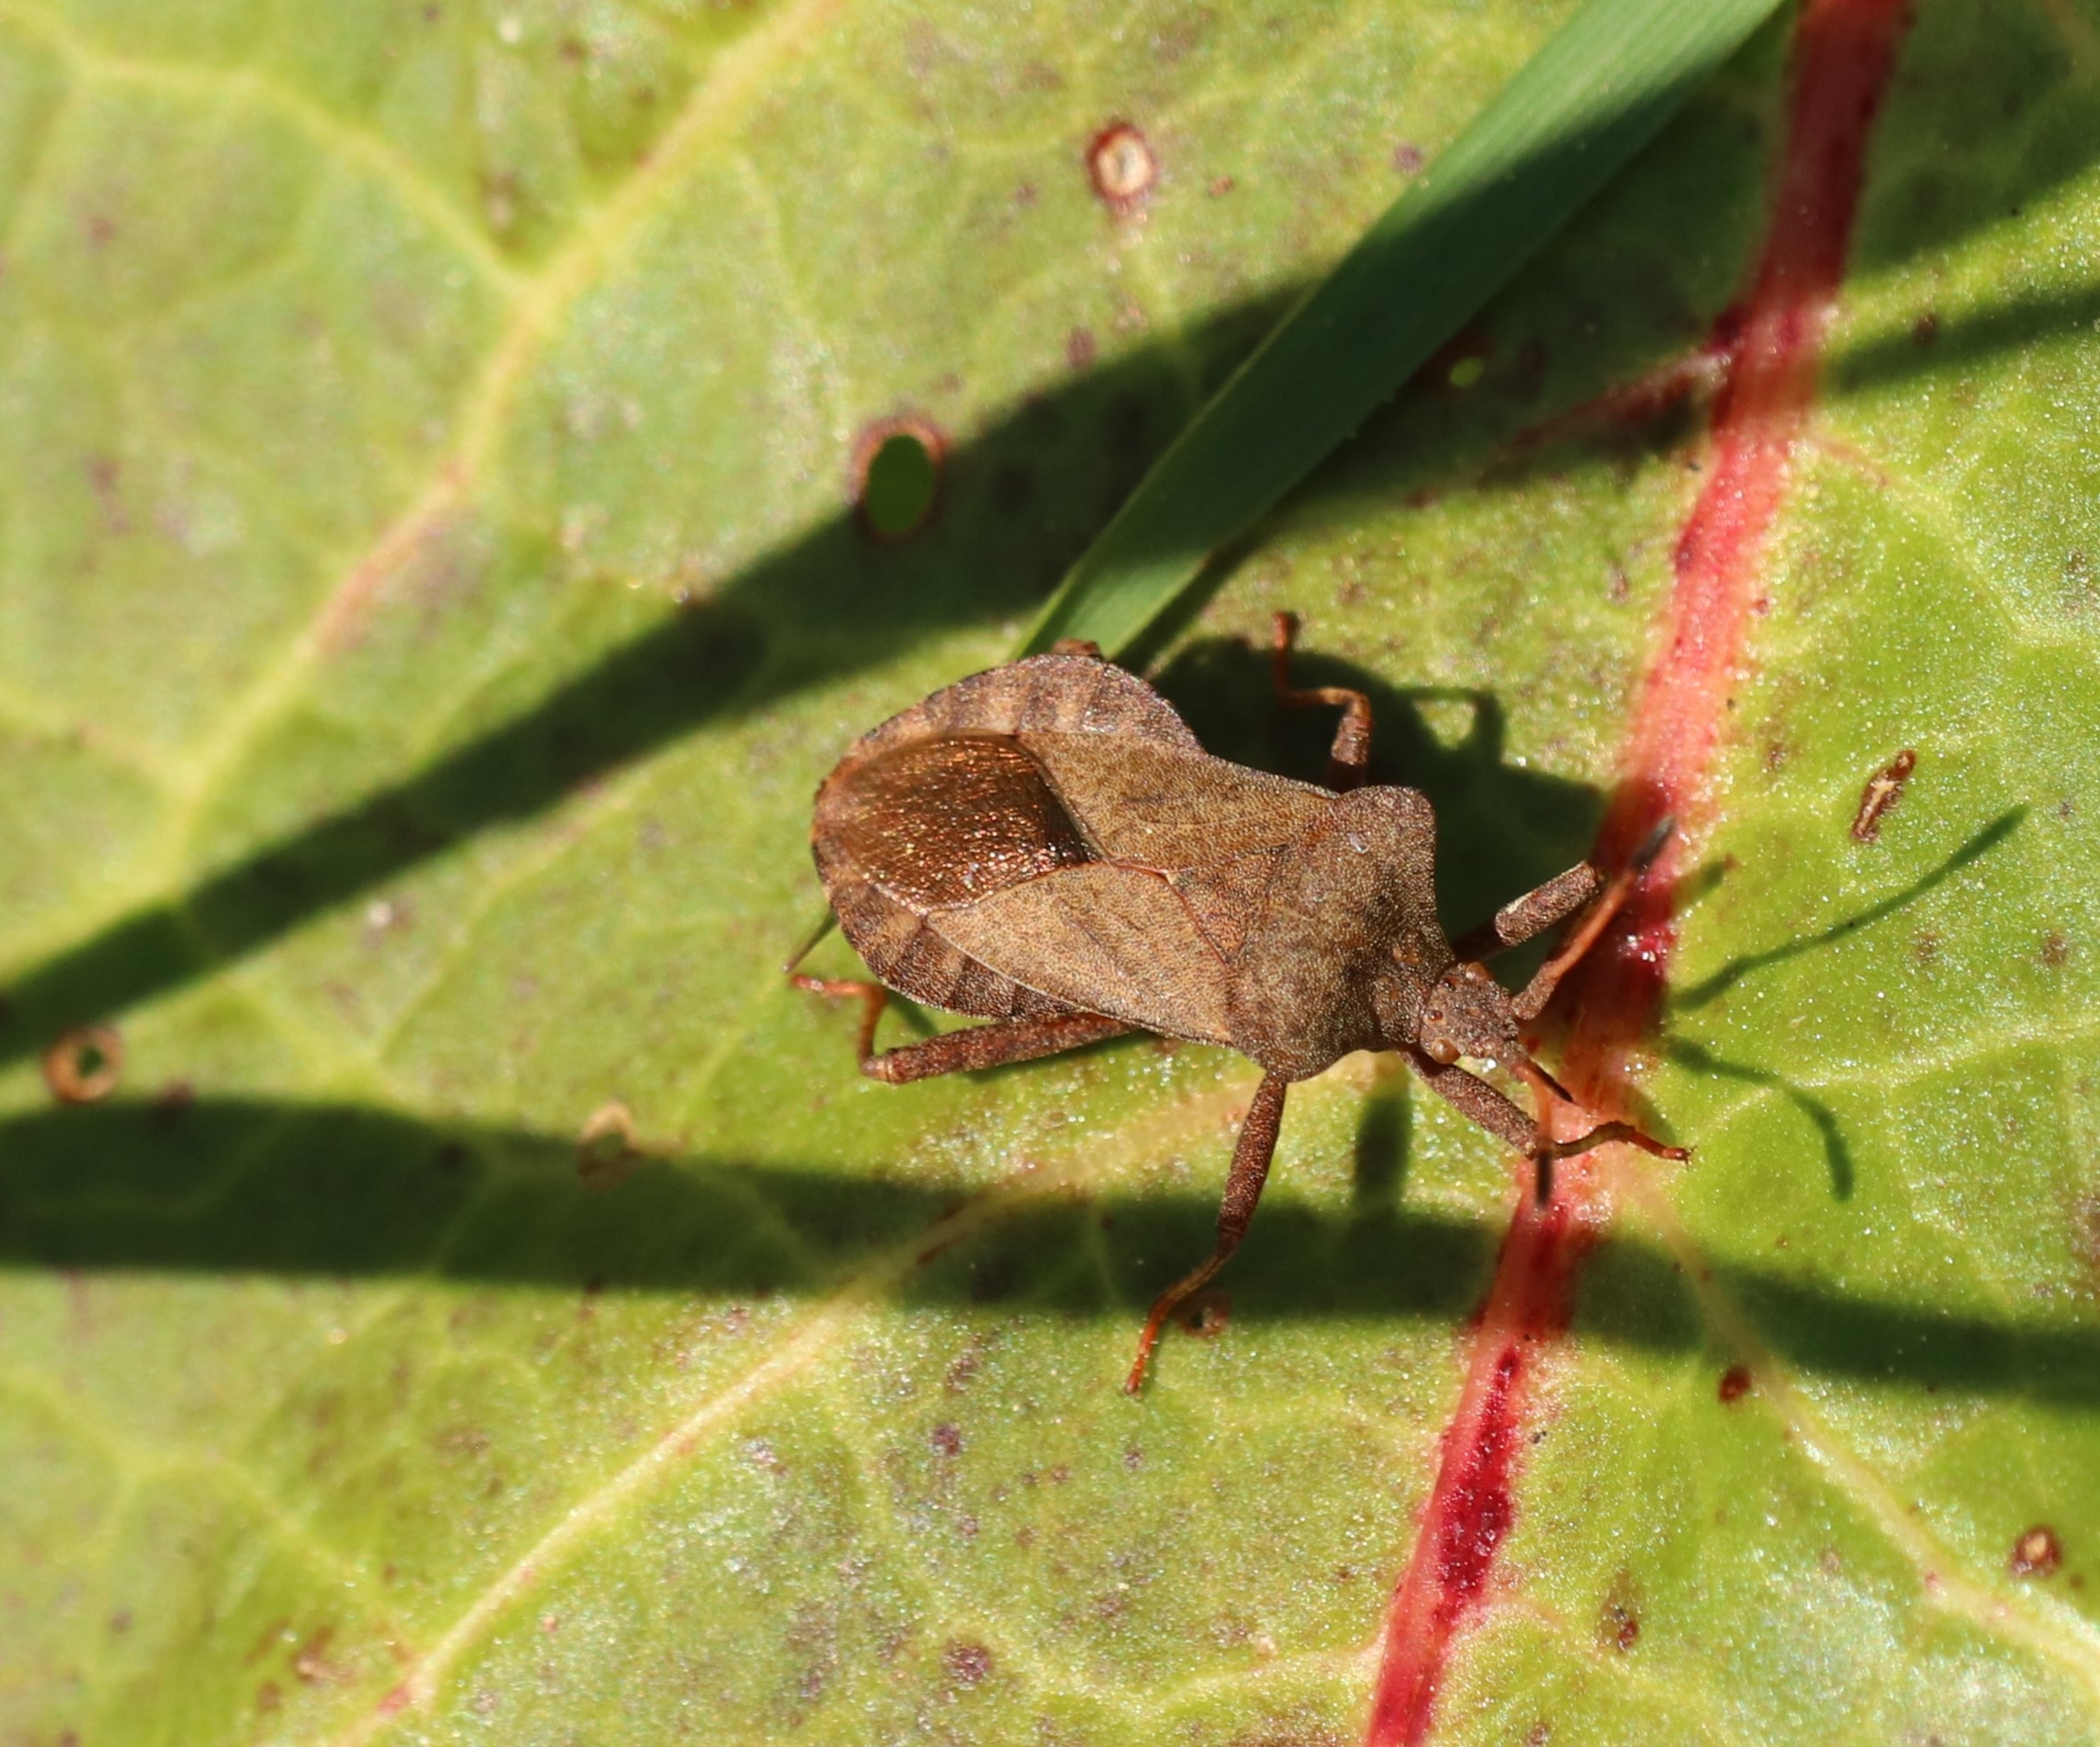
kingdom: Animalia
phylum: Arthropoda
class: Insecta
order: Hemiptera
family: Coreidae
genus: Coreus
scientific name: Coreus marginatus
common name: Skræppetæge
